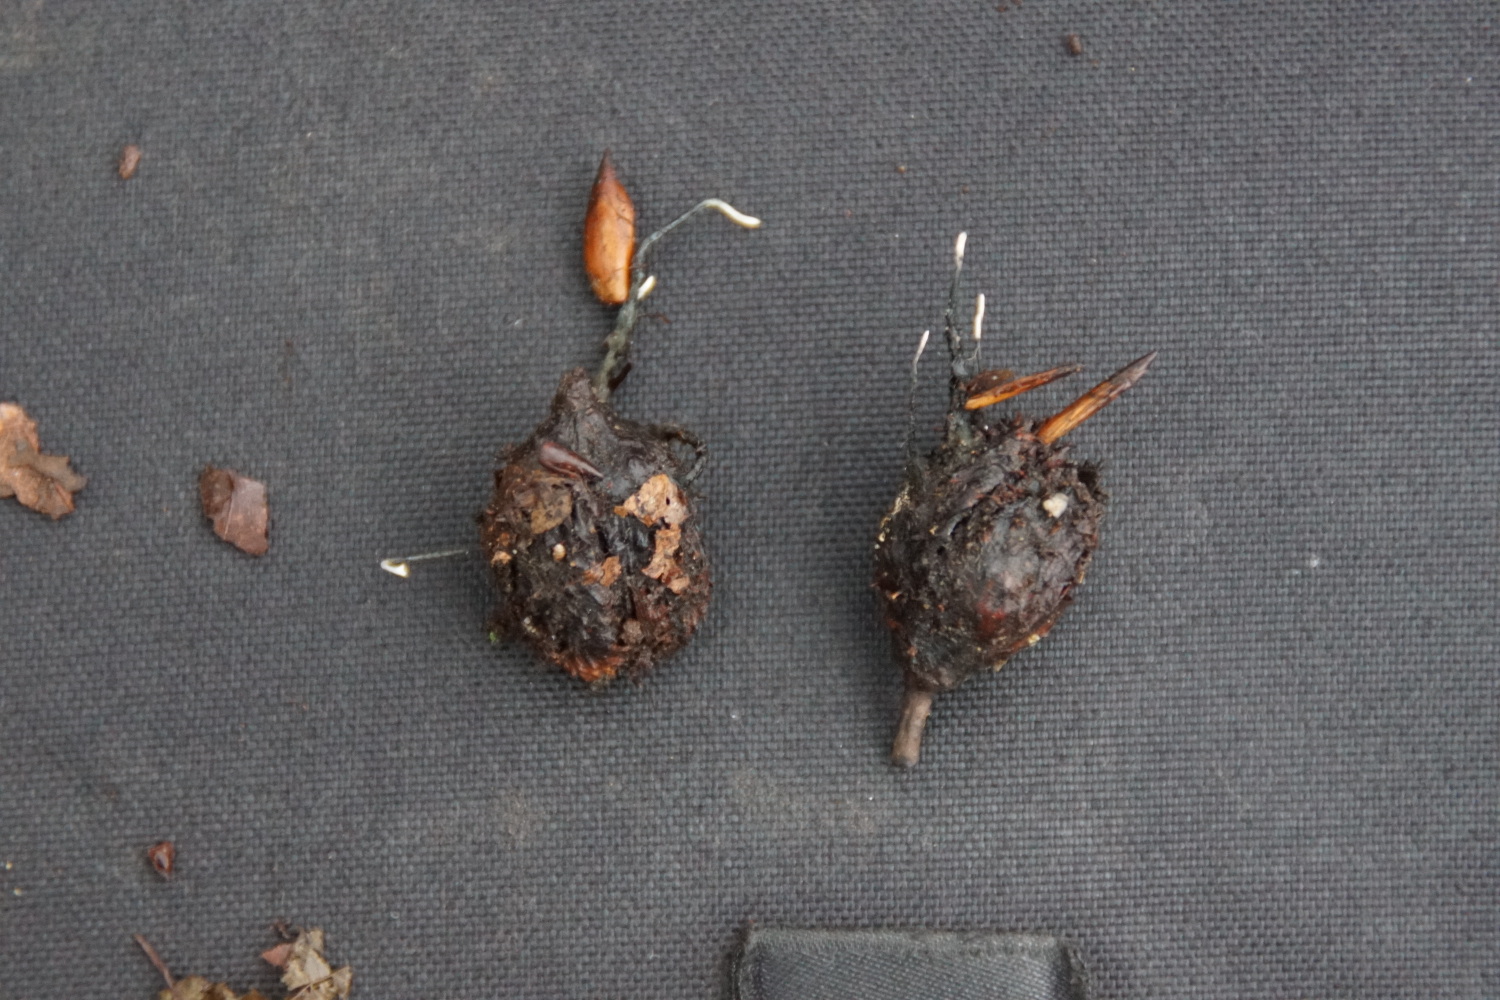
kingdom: Fungi
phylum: Ascomycota
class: Sordariomycetes
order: Xylariales
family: Xylariaceae
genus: Xylaria
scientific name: Xylaria carpophila
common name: bogskål-stødsvamp
